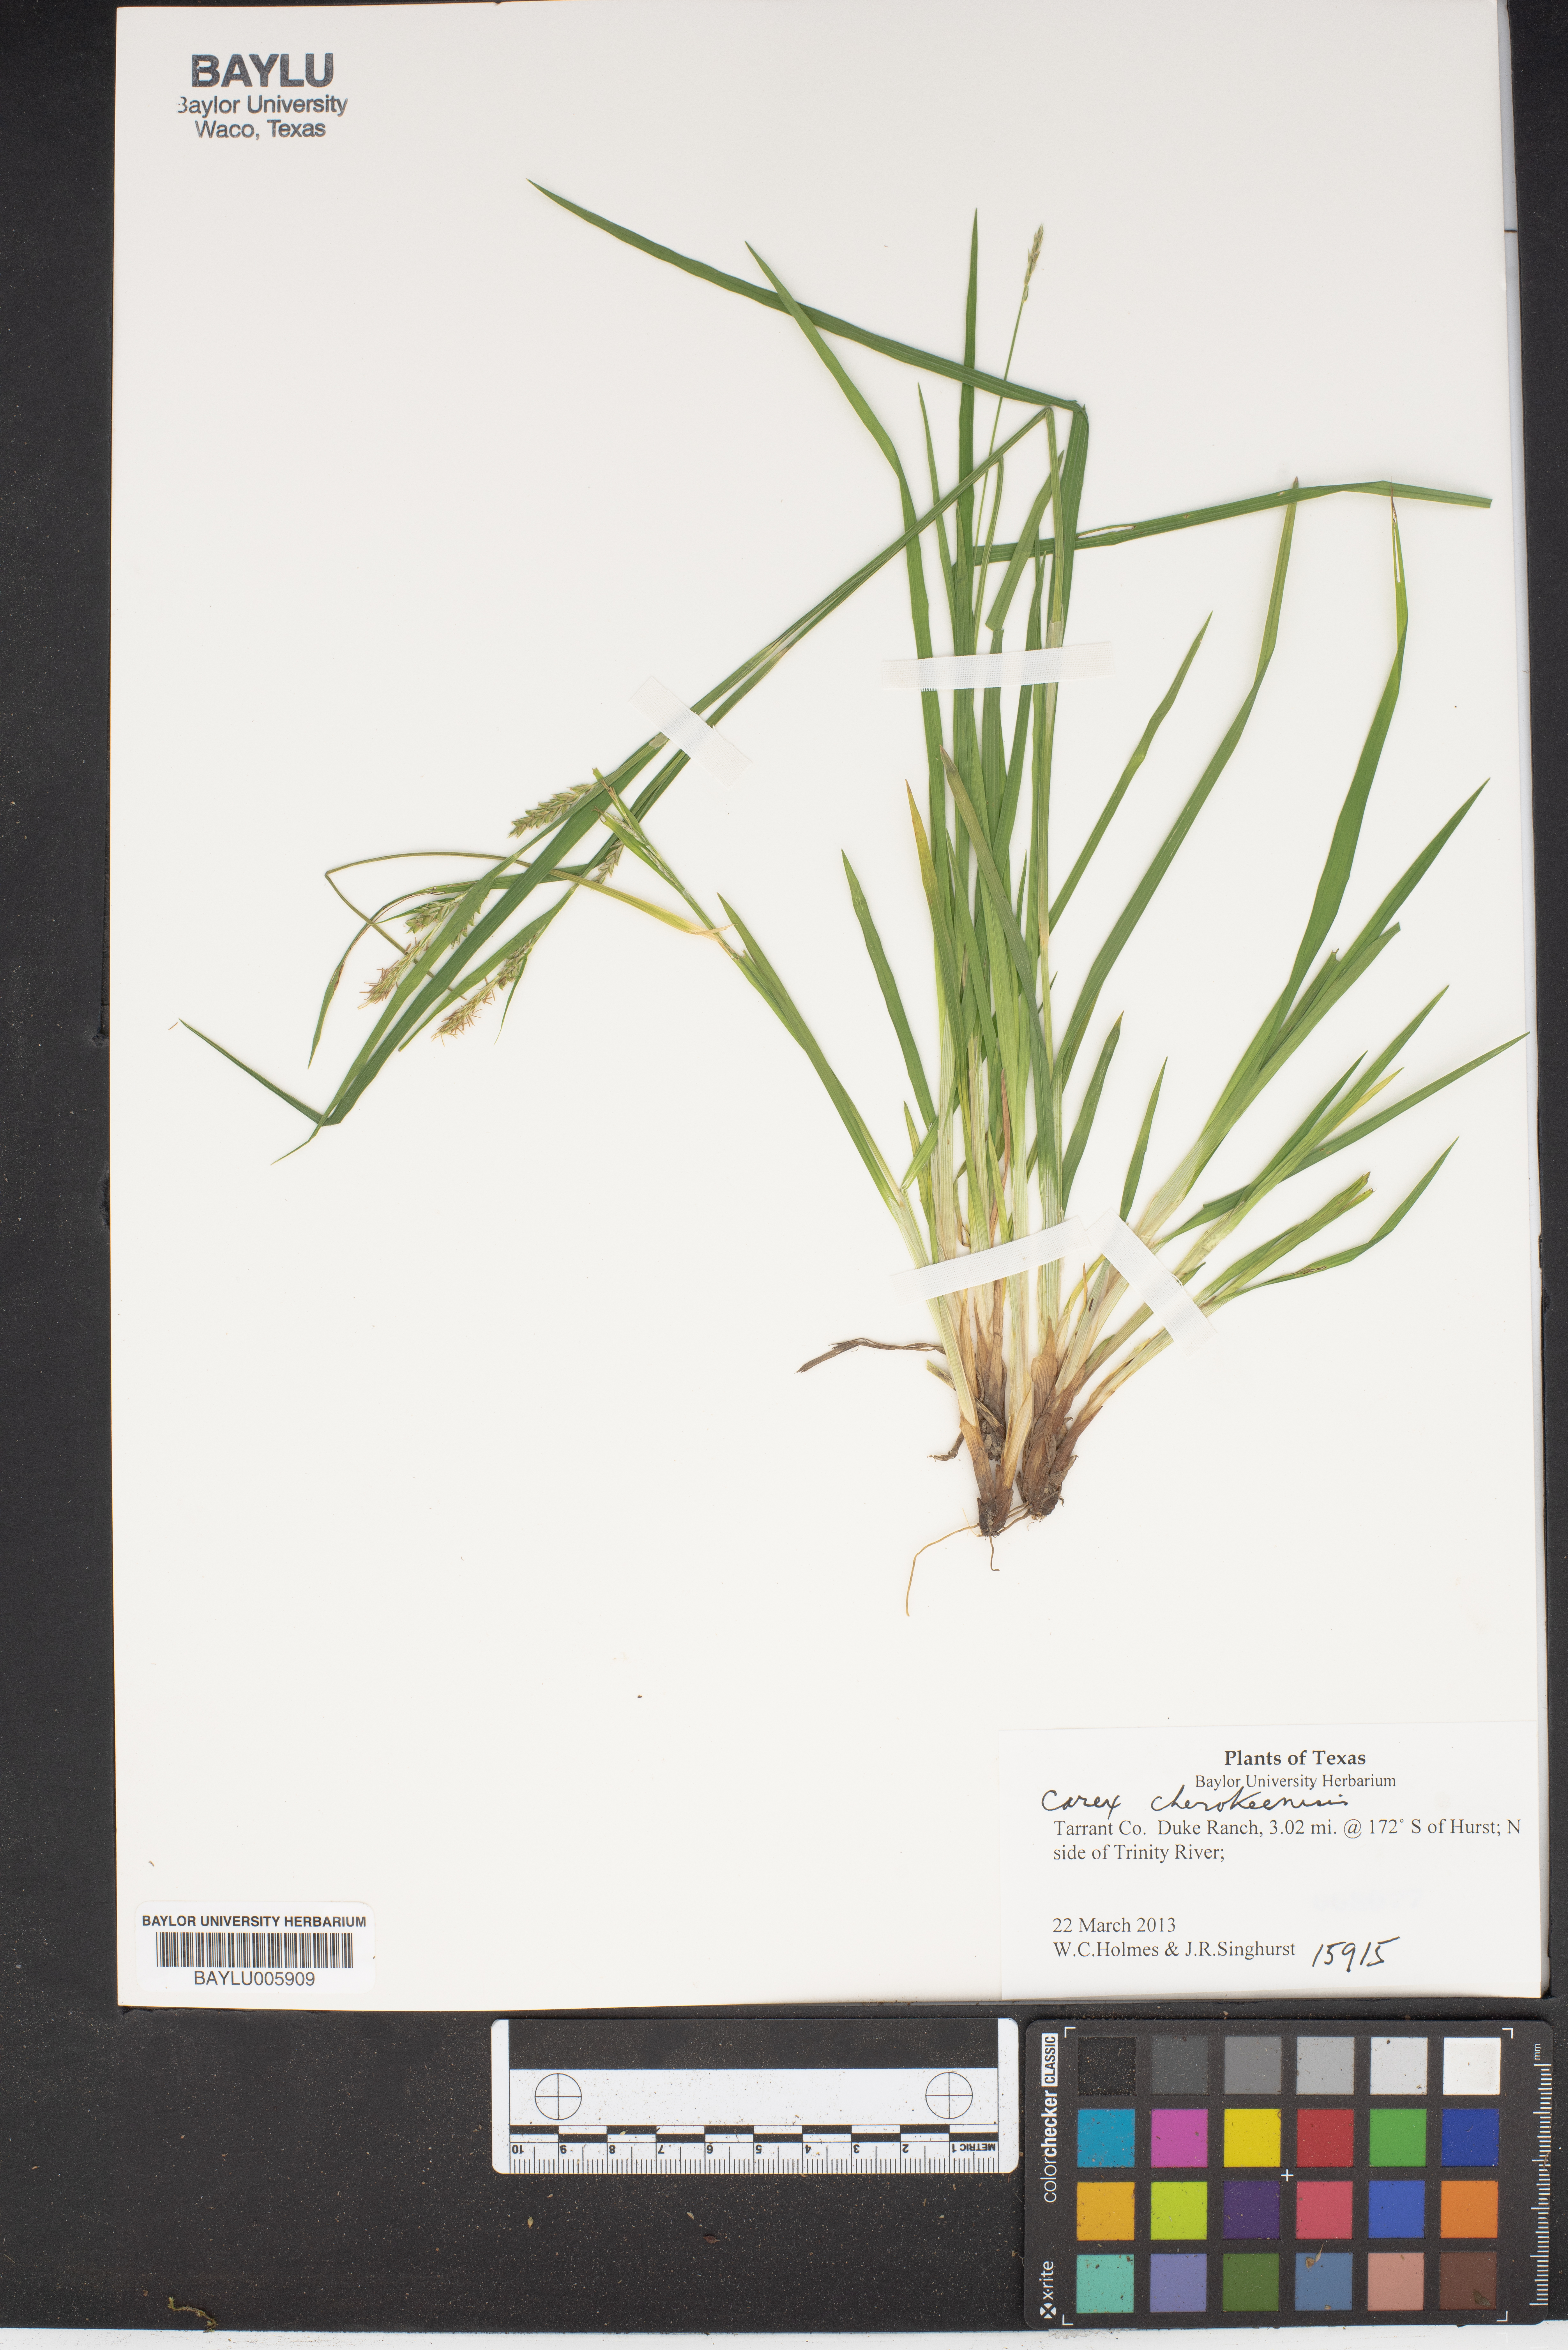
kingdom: Plantae
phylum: Tracheophyta
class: Liliopsida
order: Poales
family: Cyperaceae
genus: Carex
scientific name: Carex cherokeensis
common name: Cherokee sedge
